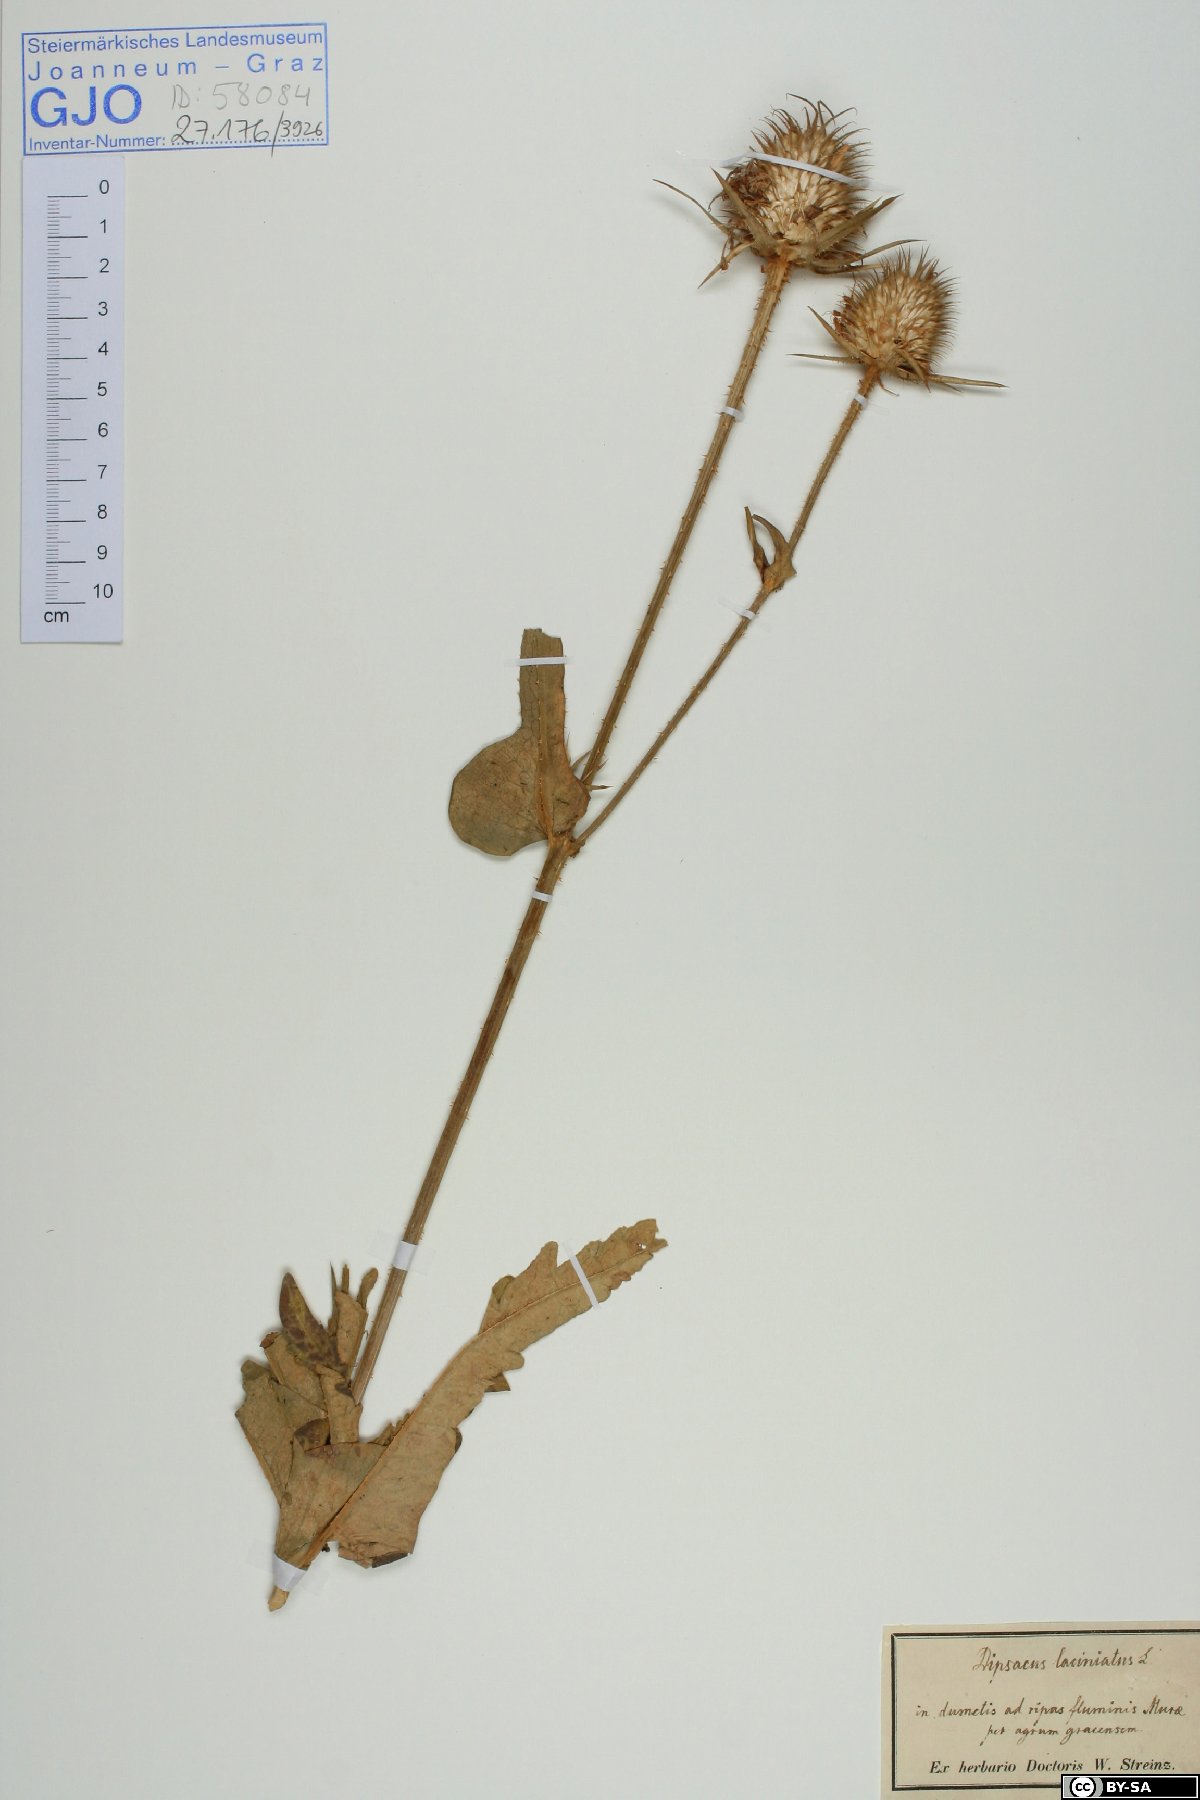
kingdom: Plantae
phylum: Tracheophyta
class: Magnoliopsida
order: Dipsacales
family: Caprifoliaceae
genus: Dipsacus
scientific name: Dipsacus laciniatus
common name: Cut-leaved teasel
